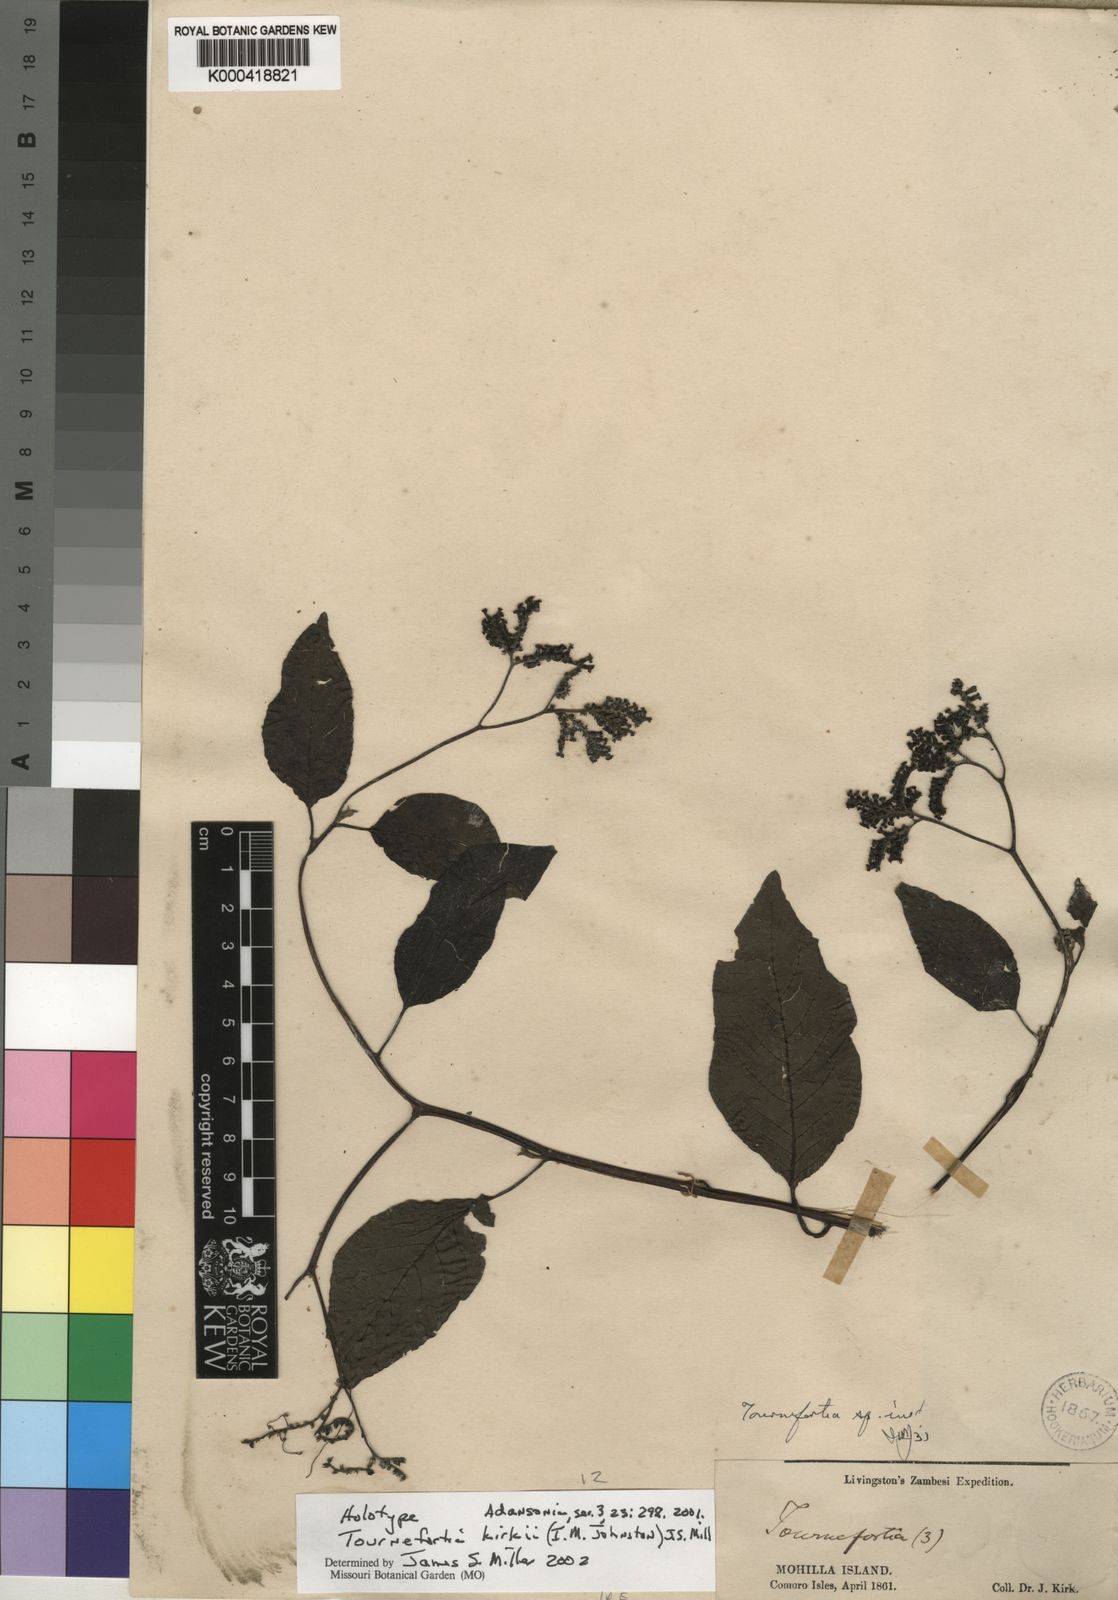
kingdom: Plantae
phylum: Tracheophyta
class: Magnoliopsida
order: Boraginales
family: Heliotropiaceae
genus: Tournefortia
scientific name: Tournefortia kirkii
